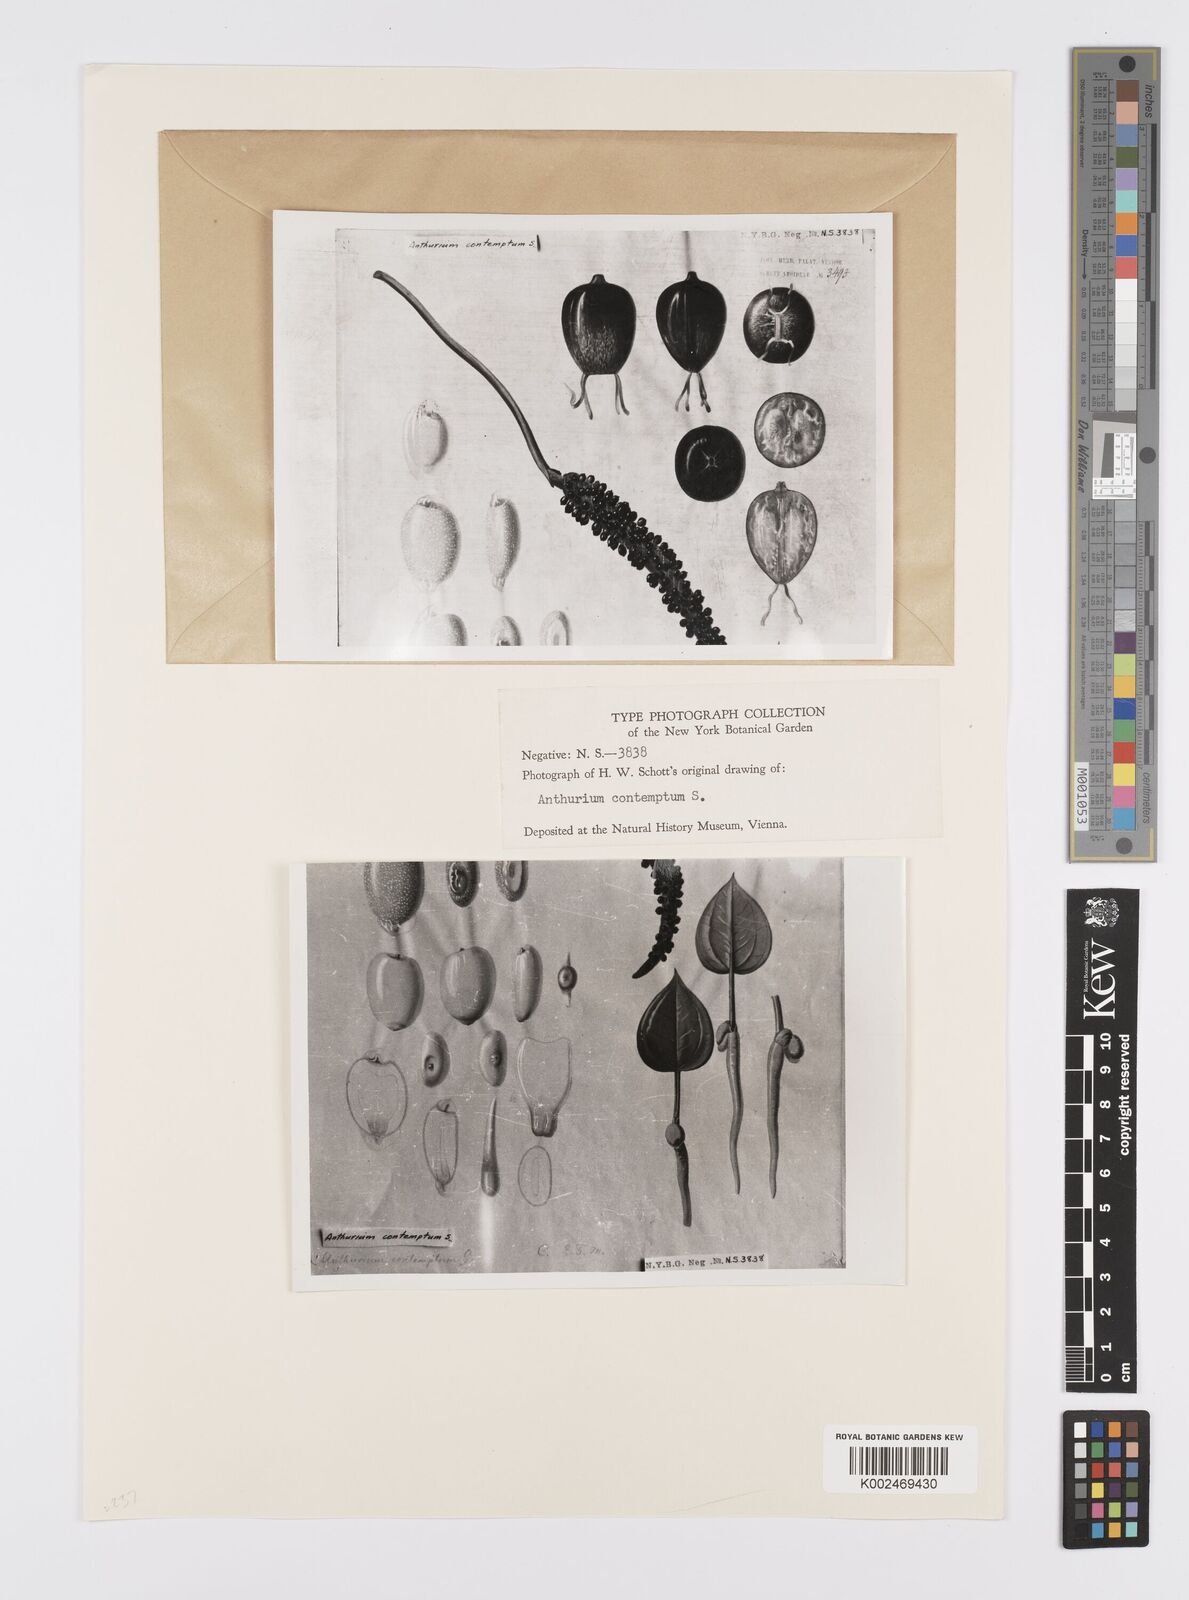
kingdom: Plantae
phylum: Tracheophyta
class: Liliopsida
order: Alismatales
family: Araceae
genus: Anthurium
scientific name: Anthurium harrisii
